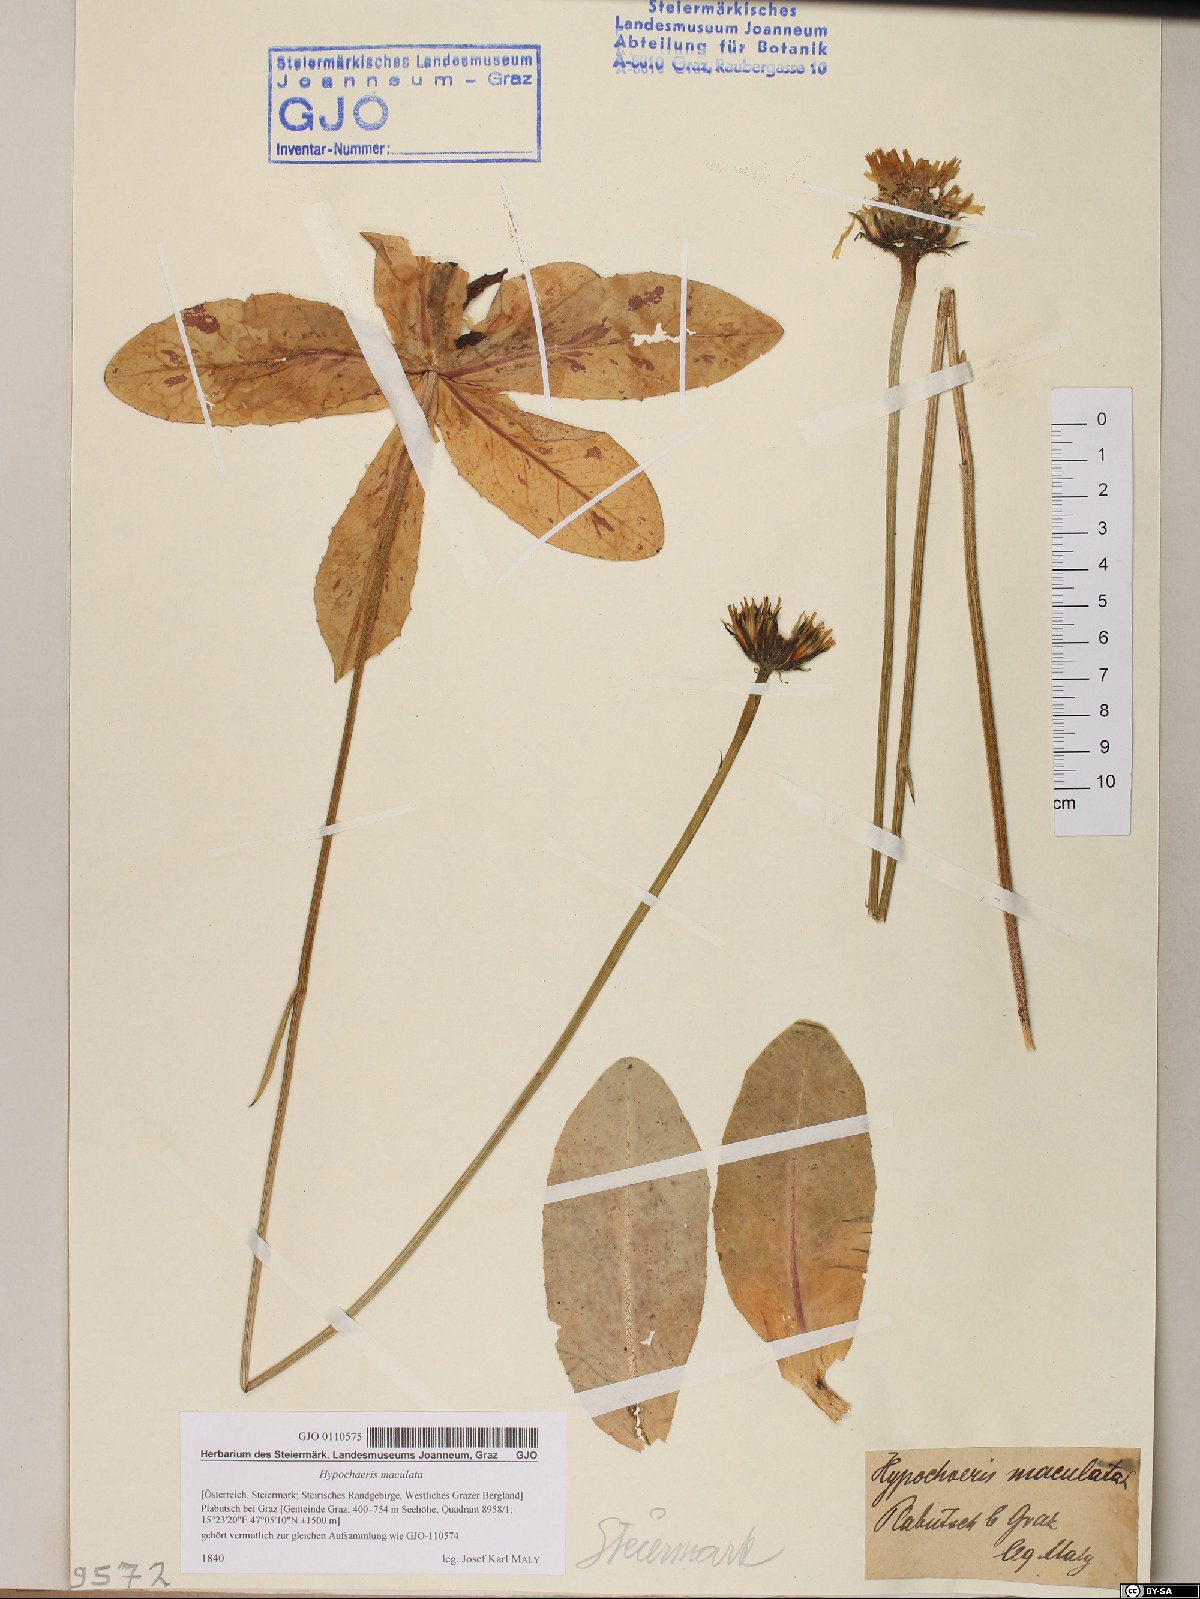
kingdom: Plantae
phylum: Tracheophyta
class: Magnoliopsida
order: Asterales
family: Asteraceae
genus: Trommsdorffia
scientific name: Trommsdorffia maculata
